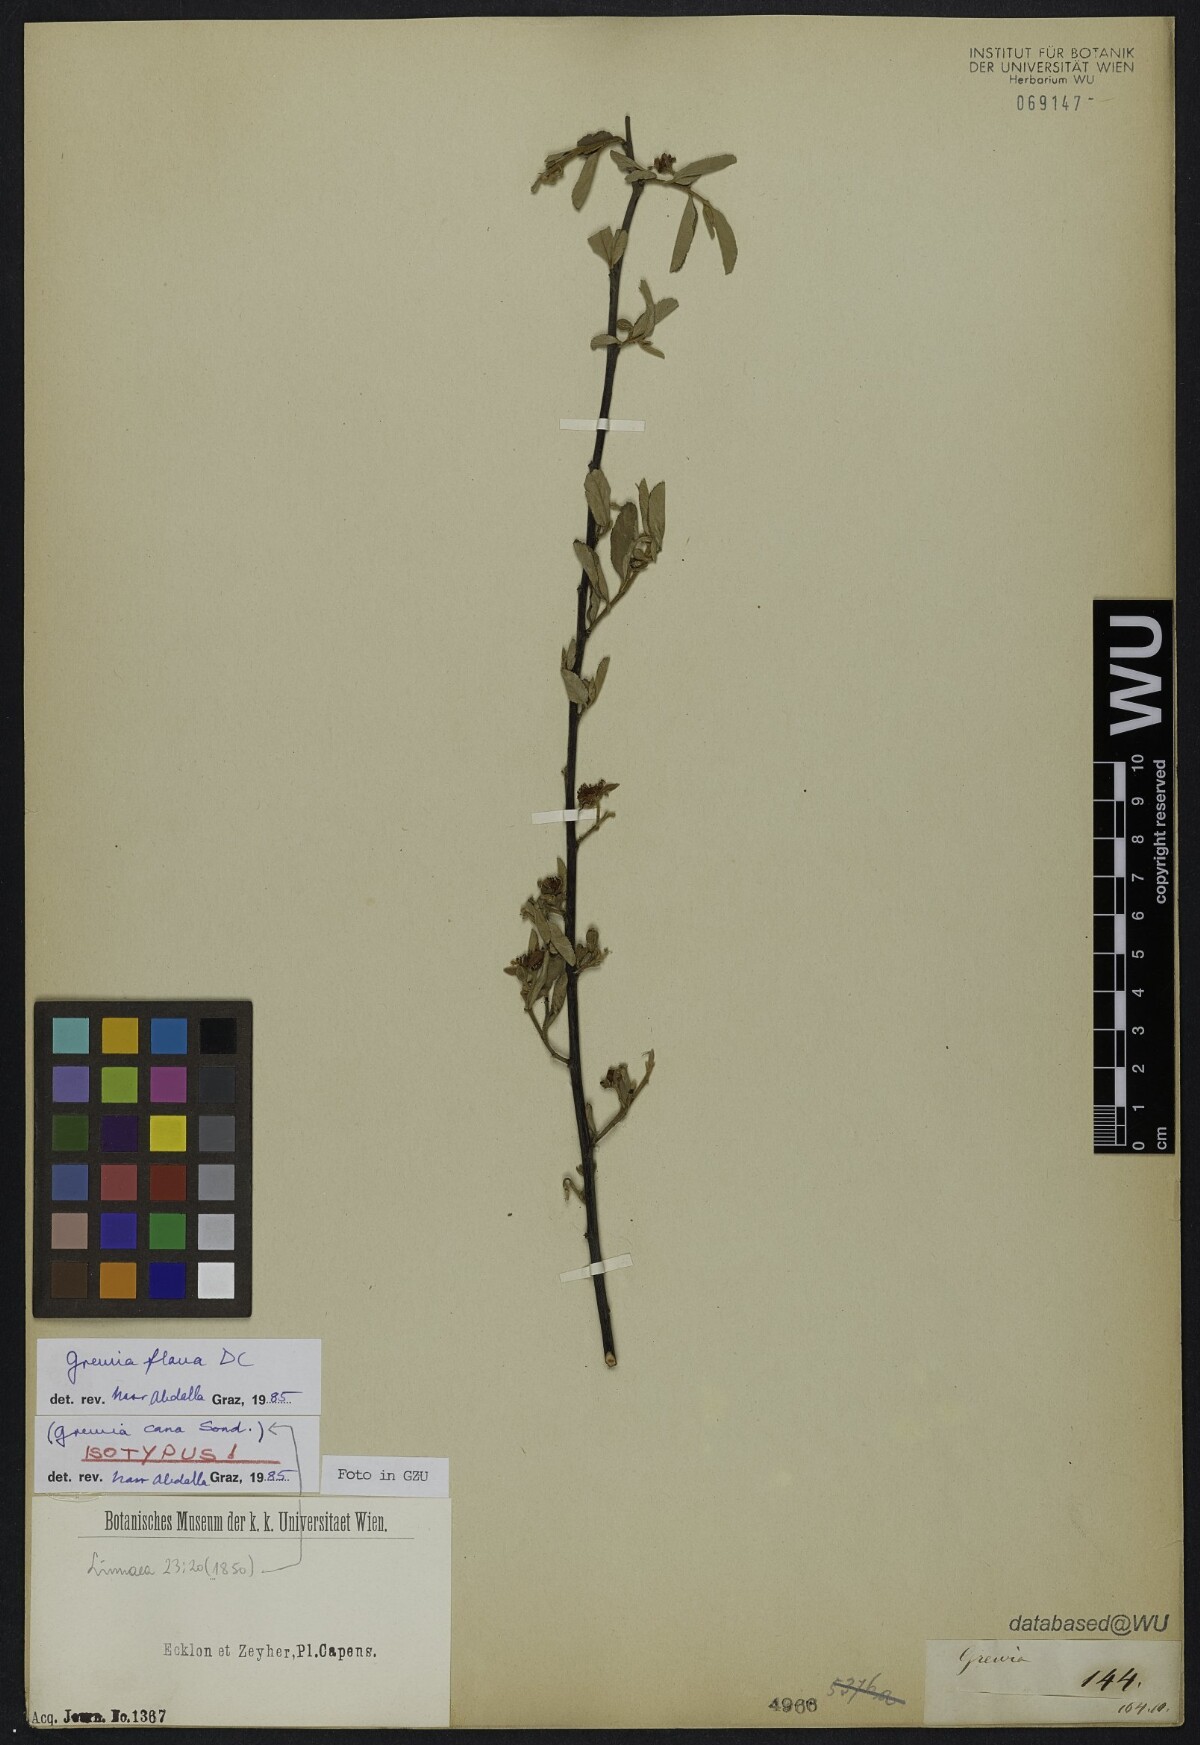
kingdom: Plantae
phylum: Tracheophyta
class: Magnoliopsida
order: Malvales
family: Malvaceae
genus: Grewia
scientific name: Grewia flava
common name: Brandy bush
